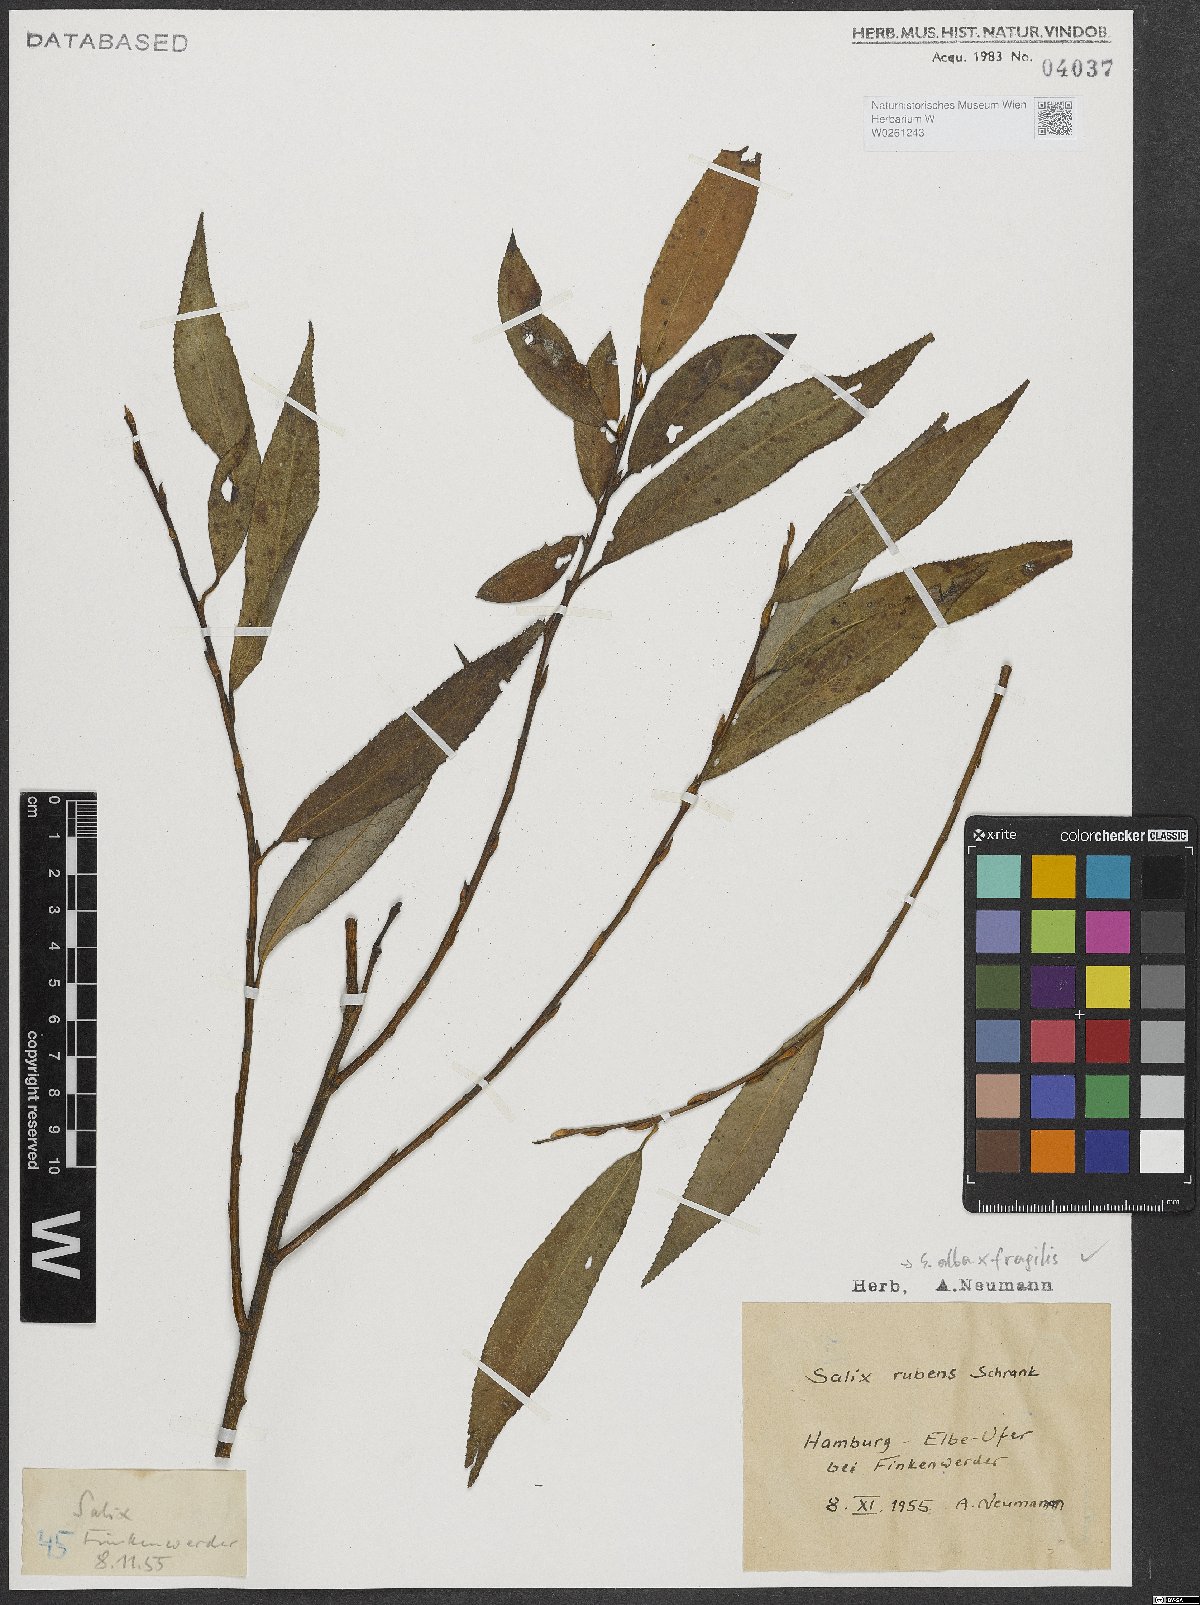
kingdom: Plantae
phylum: Tracheophyta
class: Magnoliopsida
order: Malpighiales
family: Salicaceae
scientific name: Salicaceae
